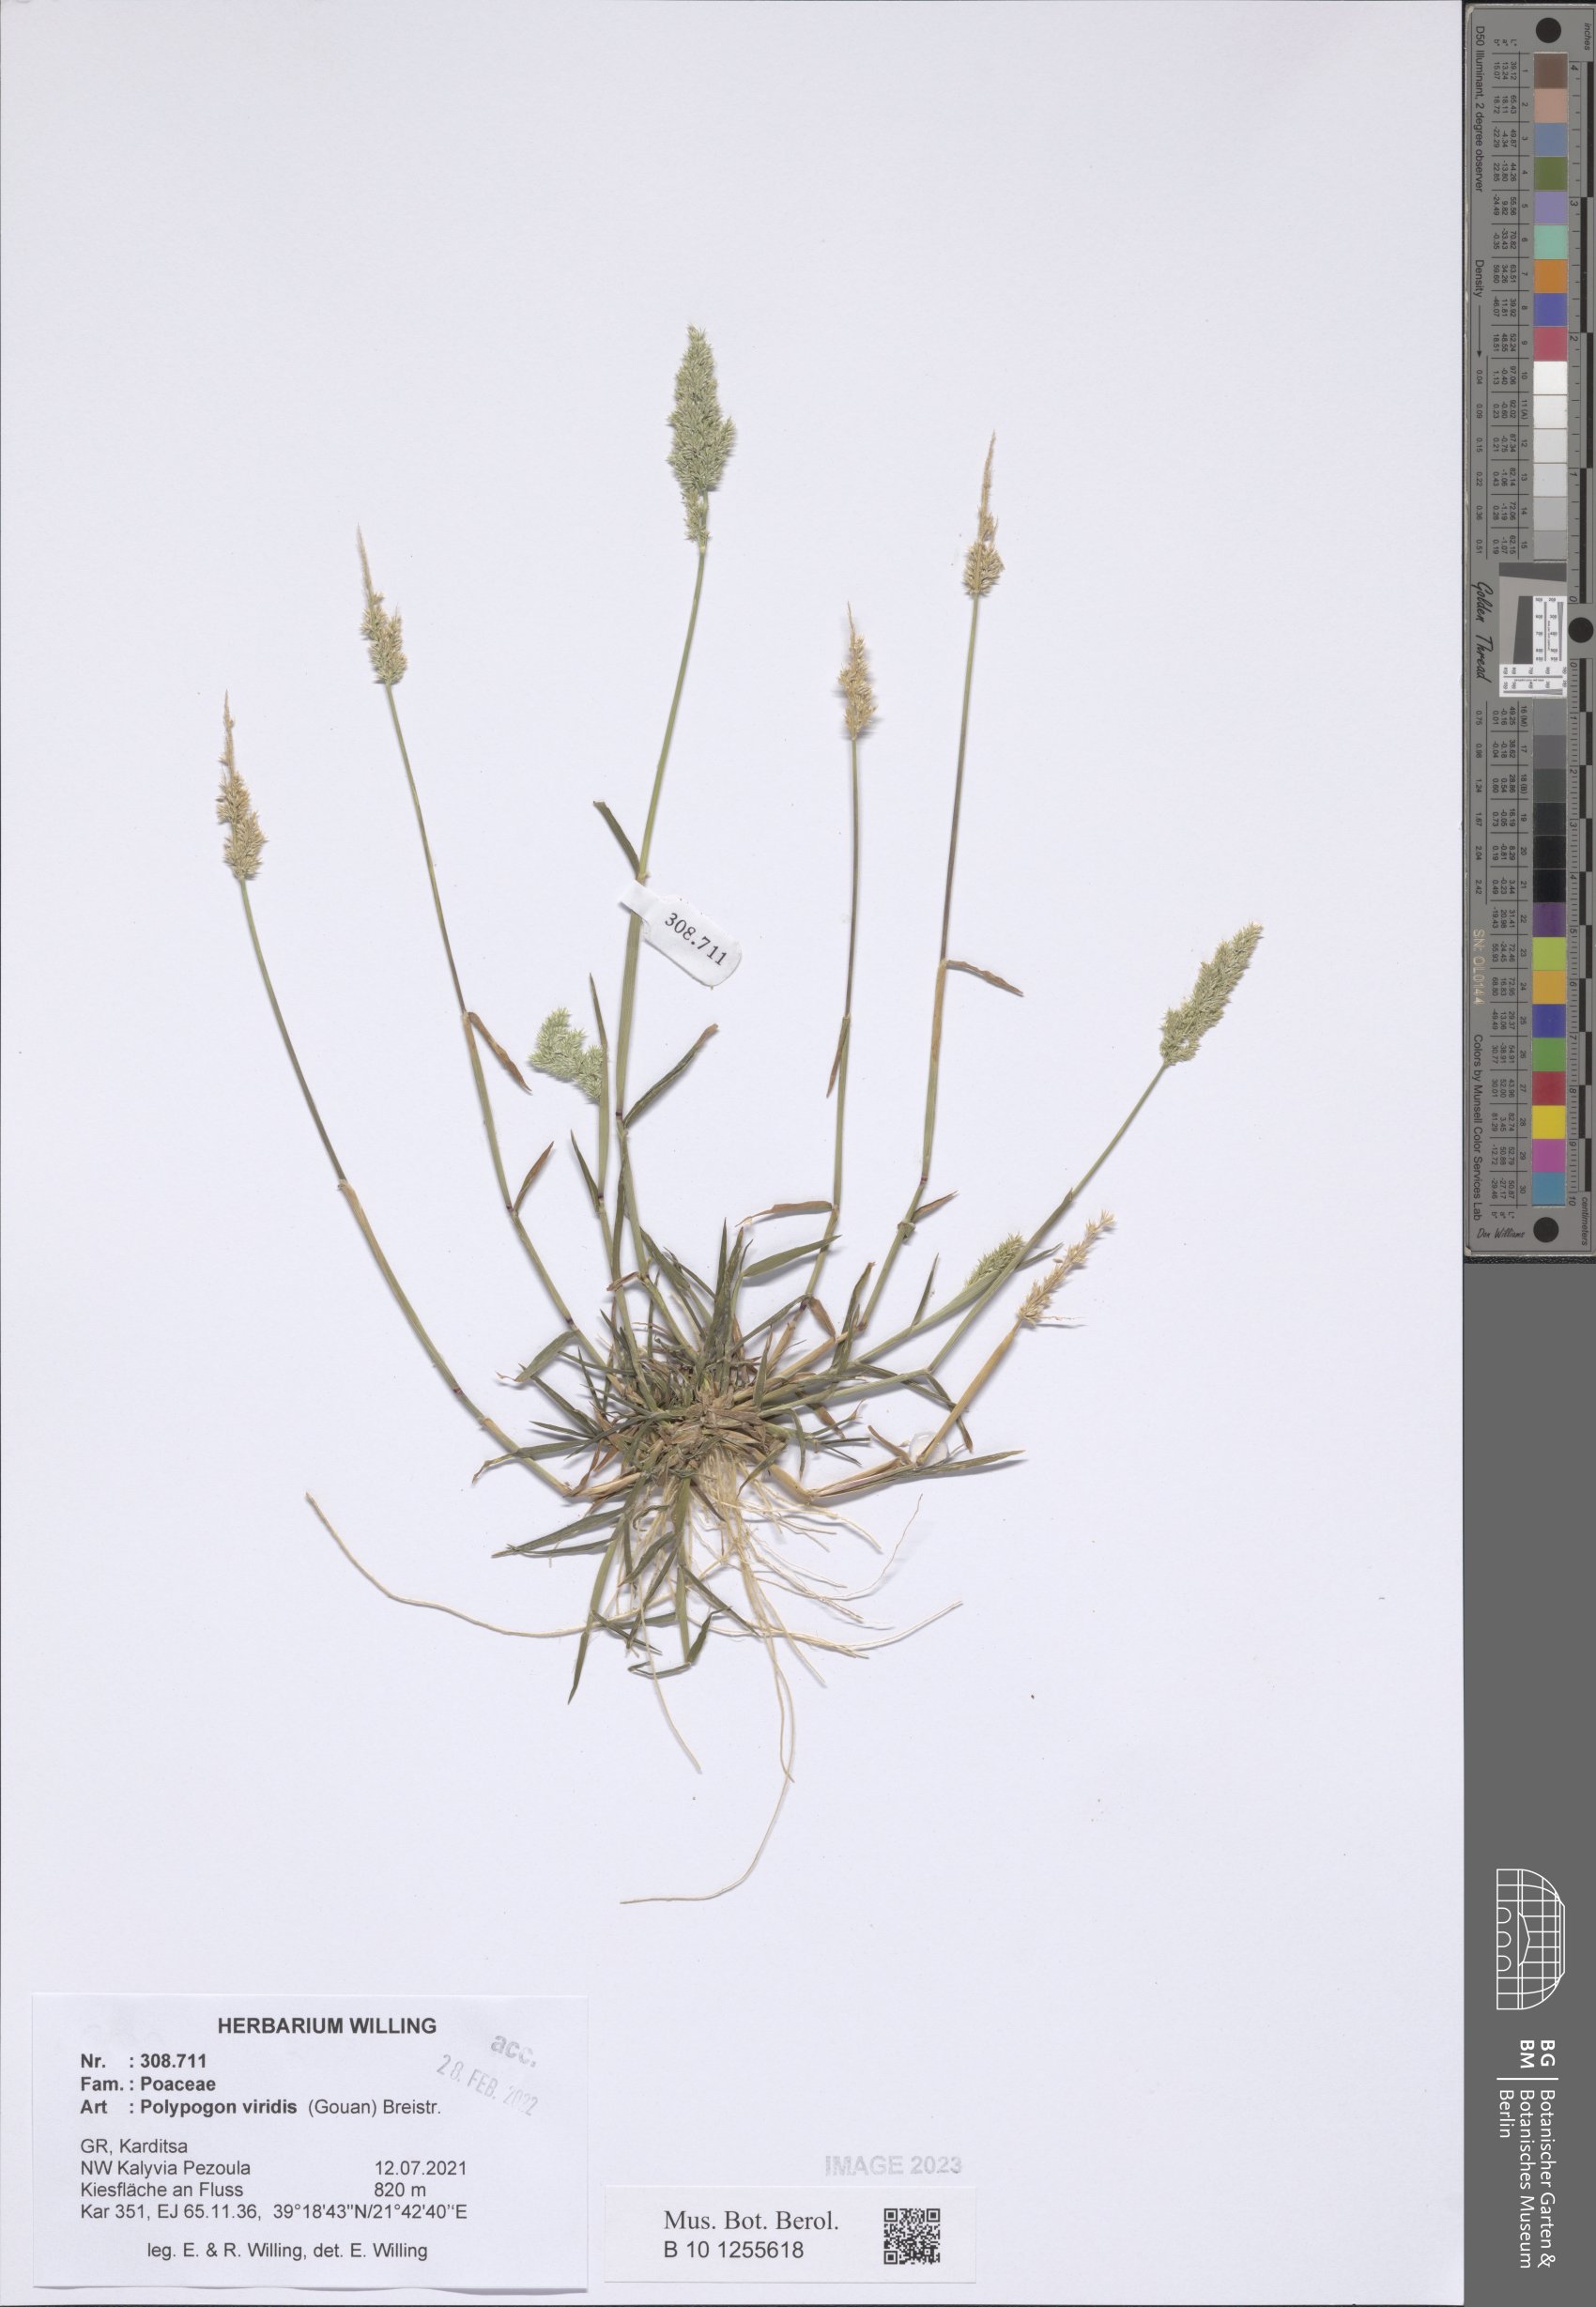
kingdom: Plantae
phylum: Tracheophyta
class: Liliopsida
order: Poales
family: Poaceae
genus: Polypogon
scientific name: Polypogon viridis
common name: Water bent
